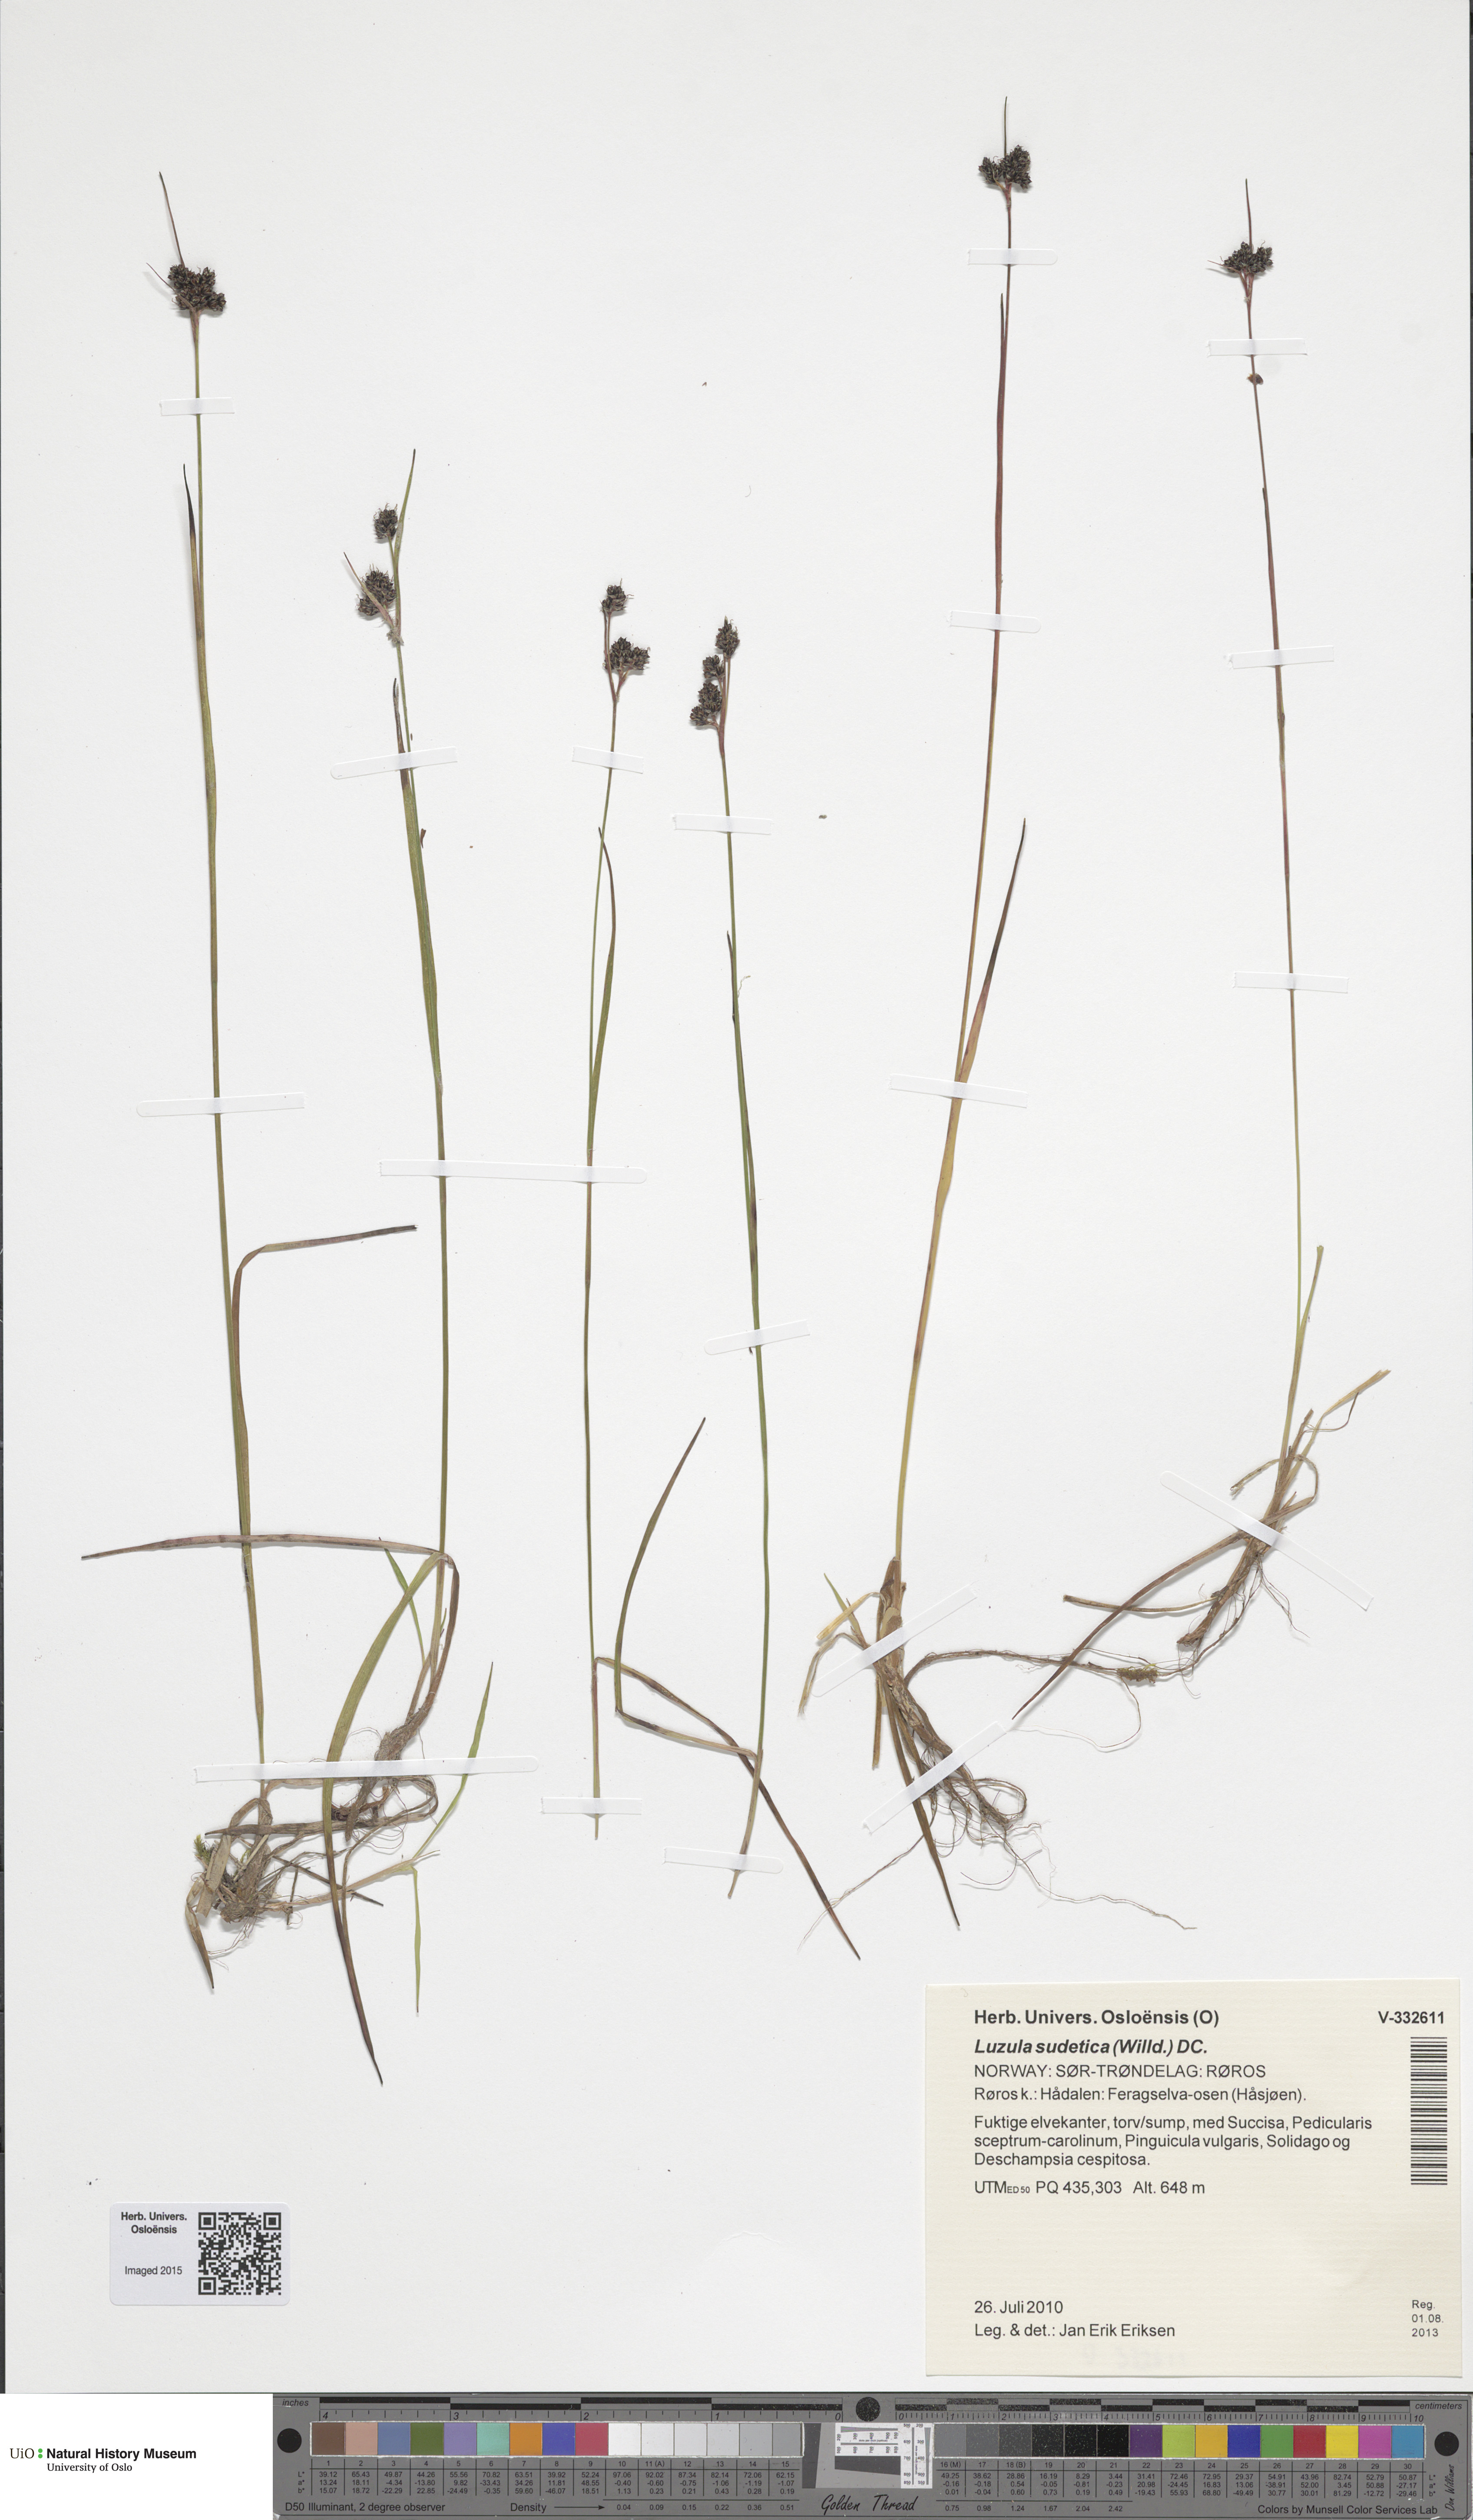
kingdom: Plantae
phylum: Tracheophyta
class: Liliopsida
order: Poales
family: Juncaceae
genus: Luzula
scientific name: Luzula sudetica
